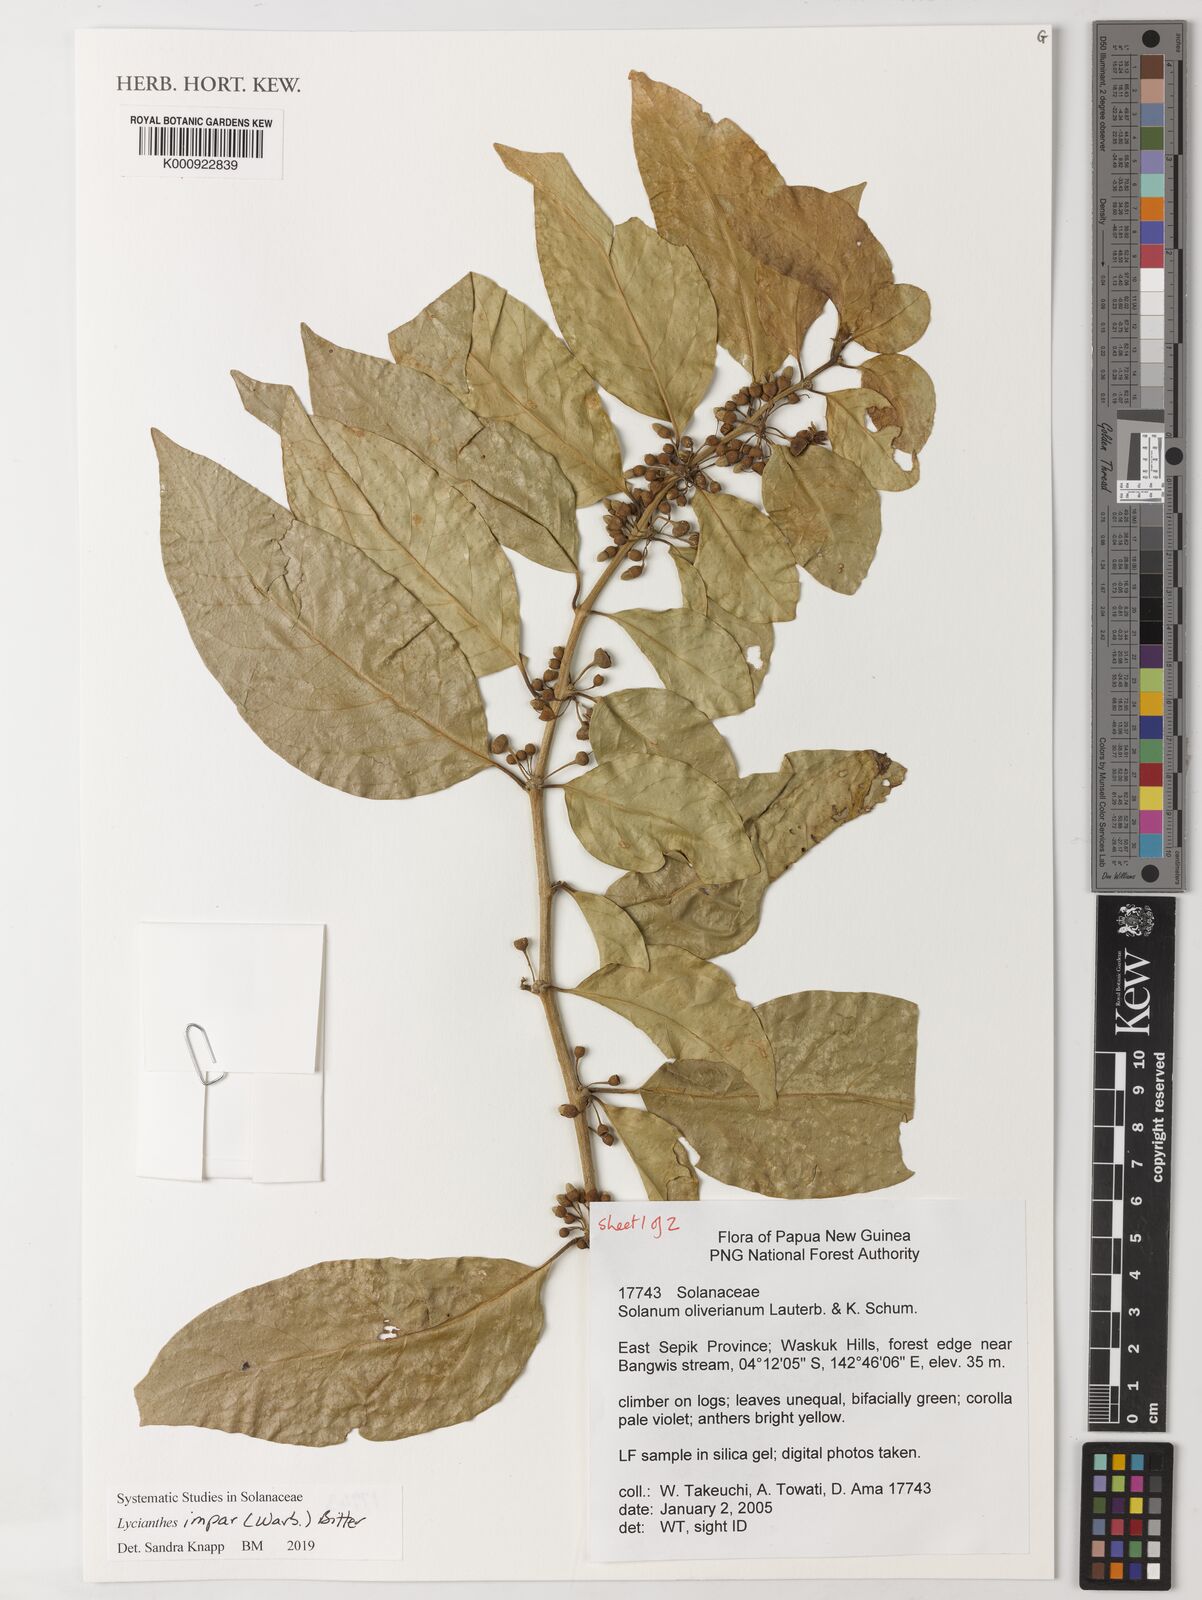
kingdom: Plantae
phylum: Tracheophyta
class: Magnoliopsida
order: Solanales
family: Solanaceae
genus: Lycianthes
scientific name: Lycianthes impar
